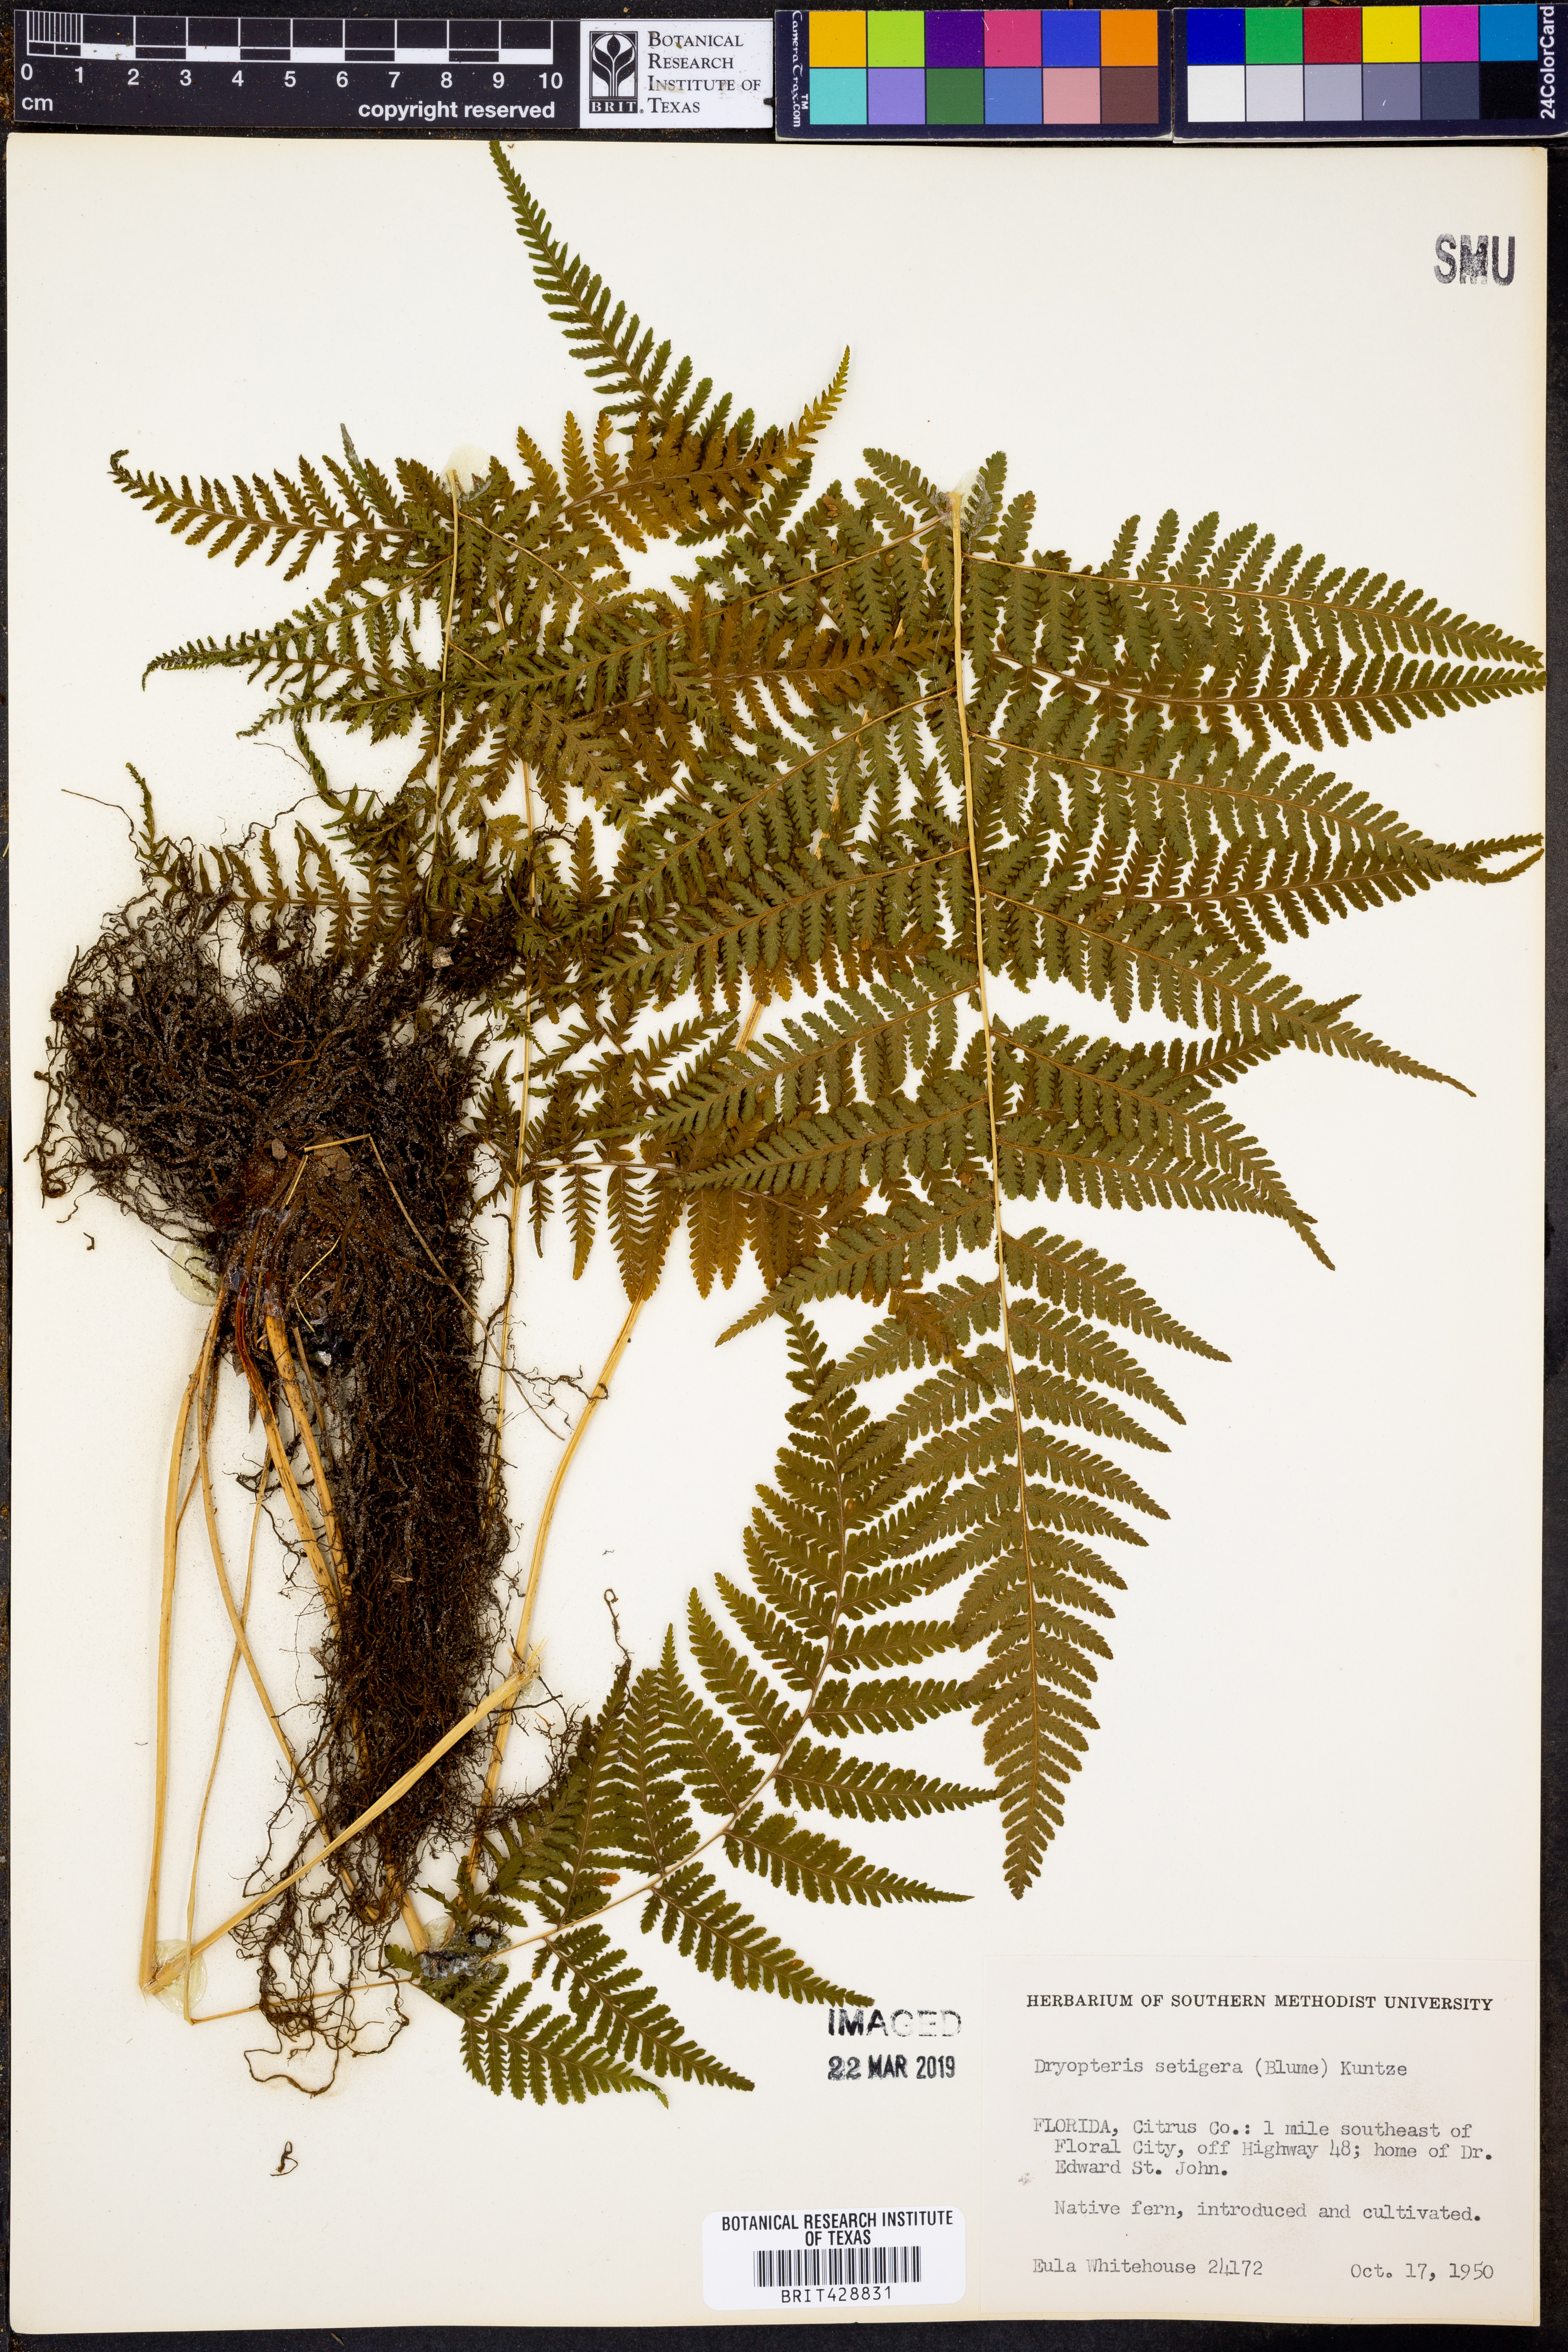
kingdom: Plantae
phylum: Tracheophyta
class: Polypodiopsida
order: Polypodiales
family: Thelypteridaceae
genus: Macrothelypteris
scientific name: Macrothelypteris torresiana
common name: Swordfern
